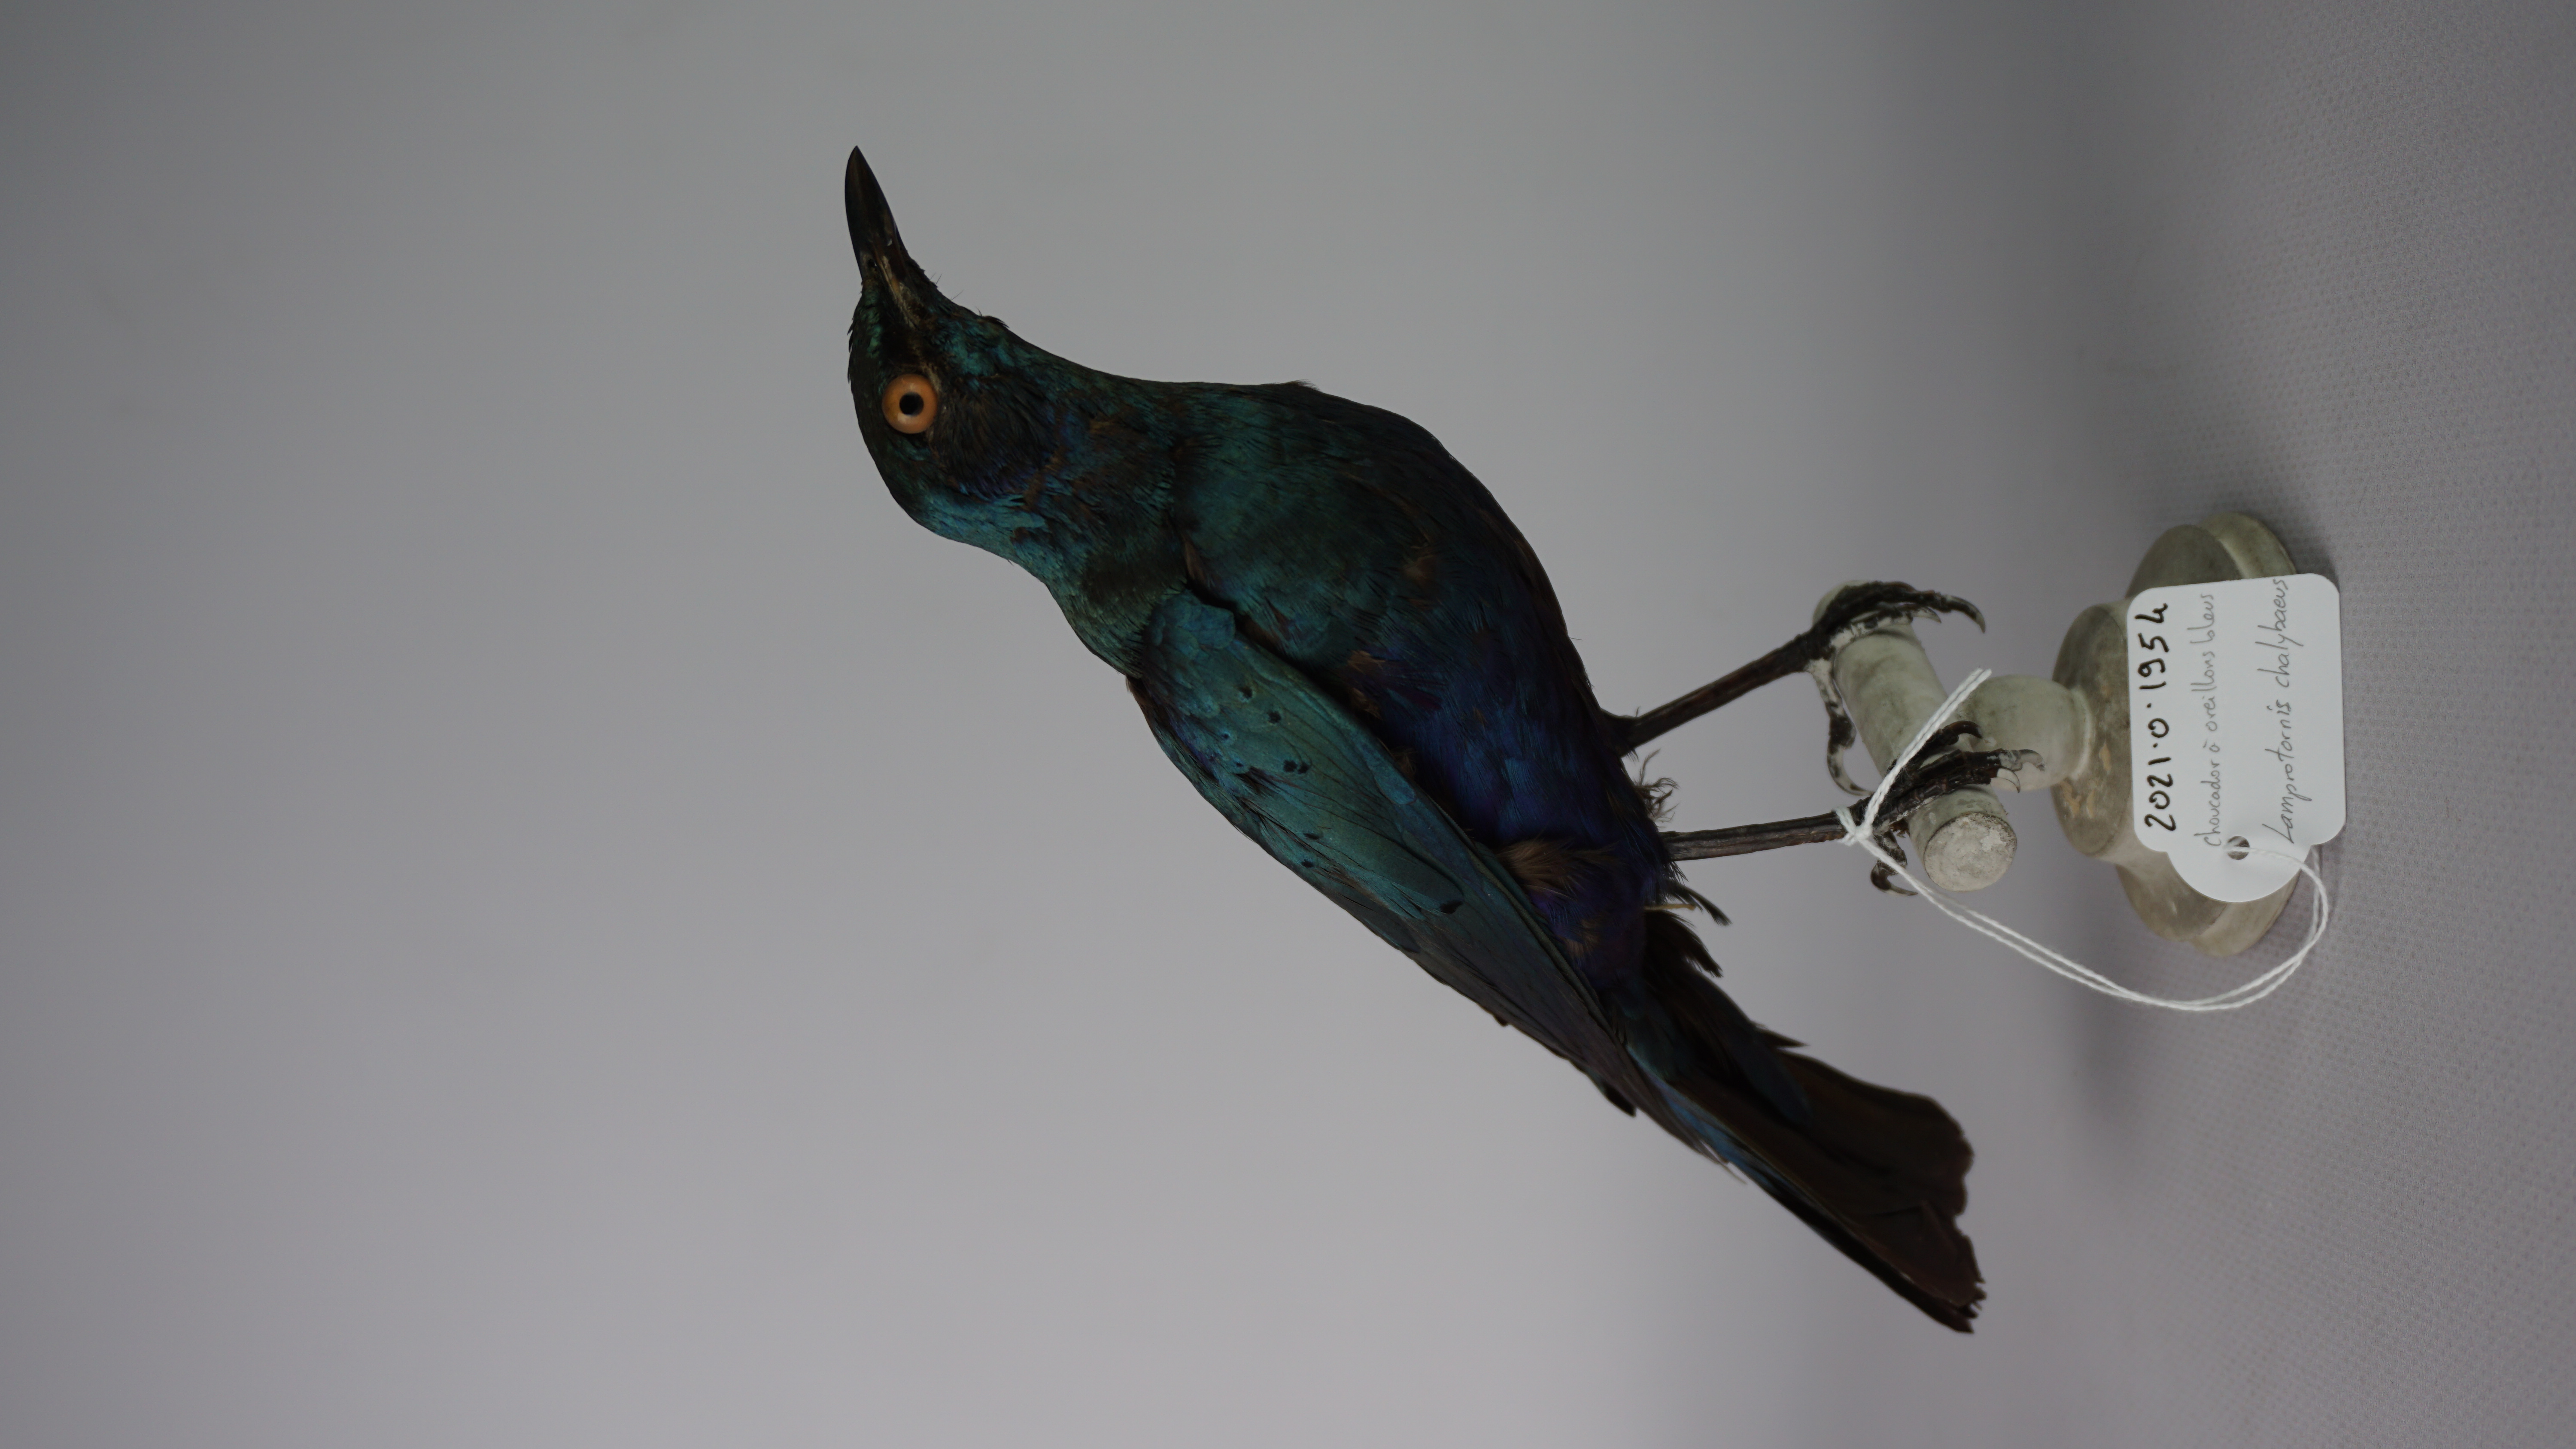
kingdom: Animalia
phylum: Chordata
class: Aves
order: Passeriformes
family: Sturnidae
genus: Lamprotornis
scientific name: Lamprotornis chalybaeus
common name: Greater blue-eared starling
